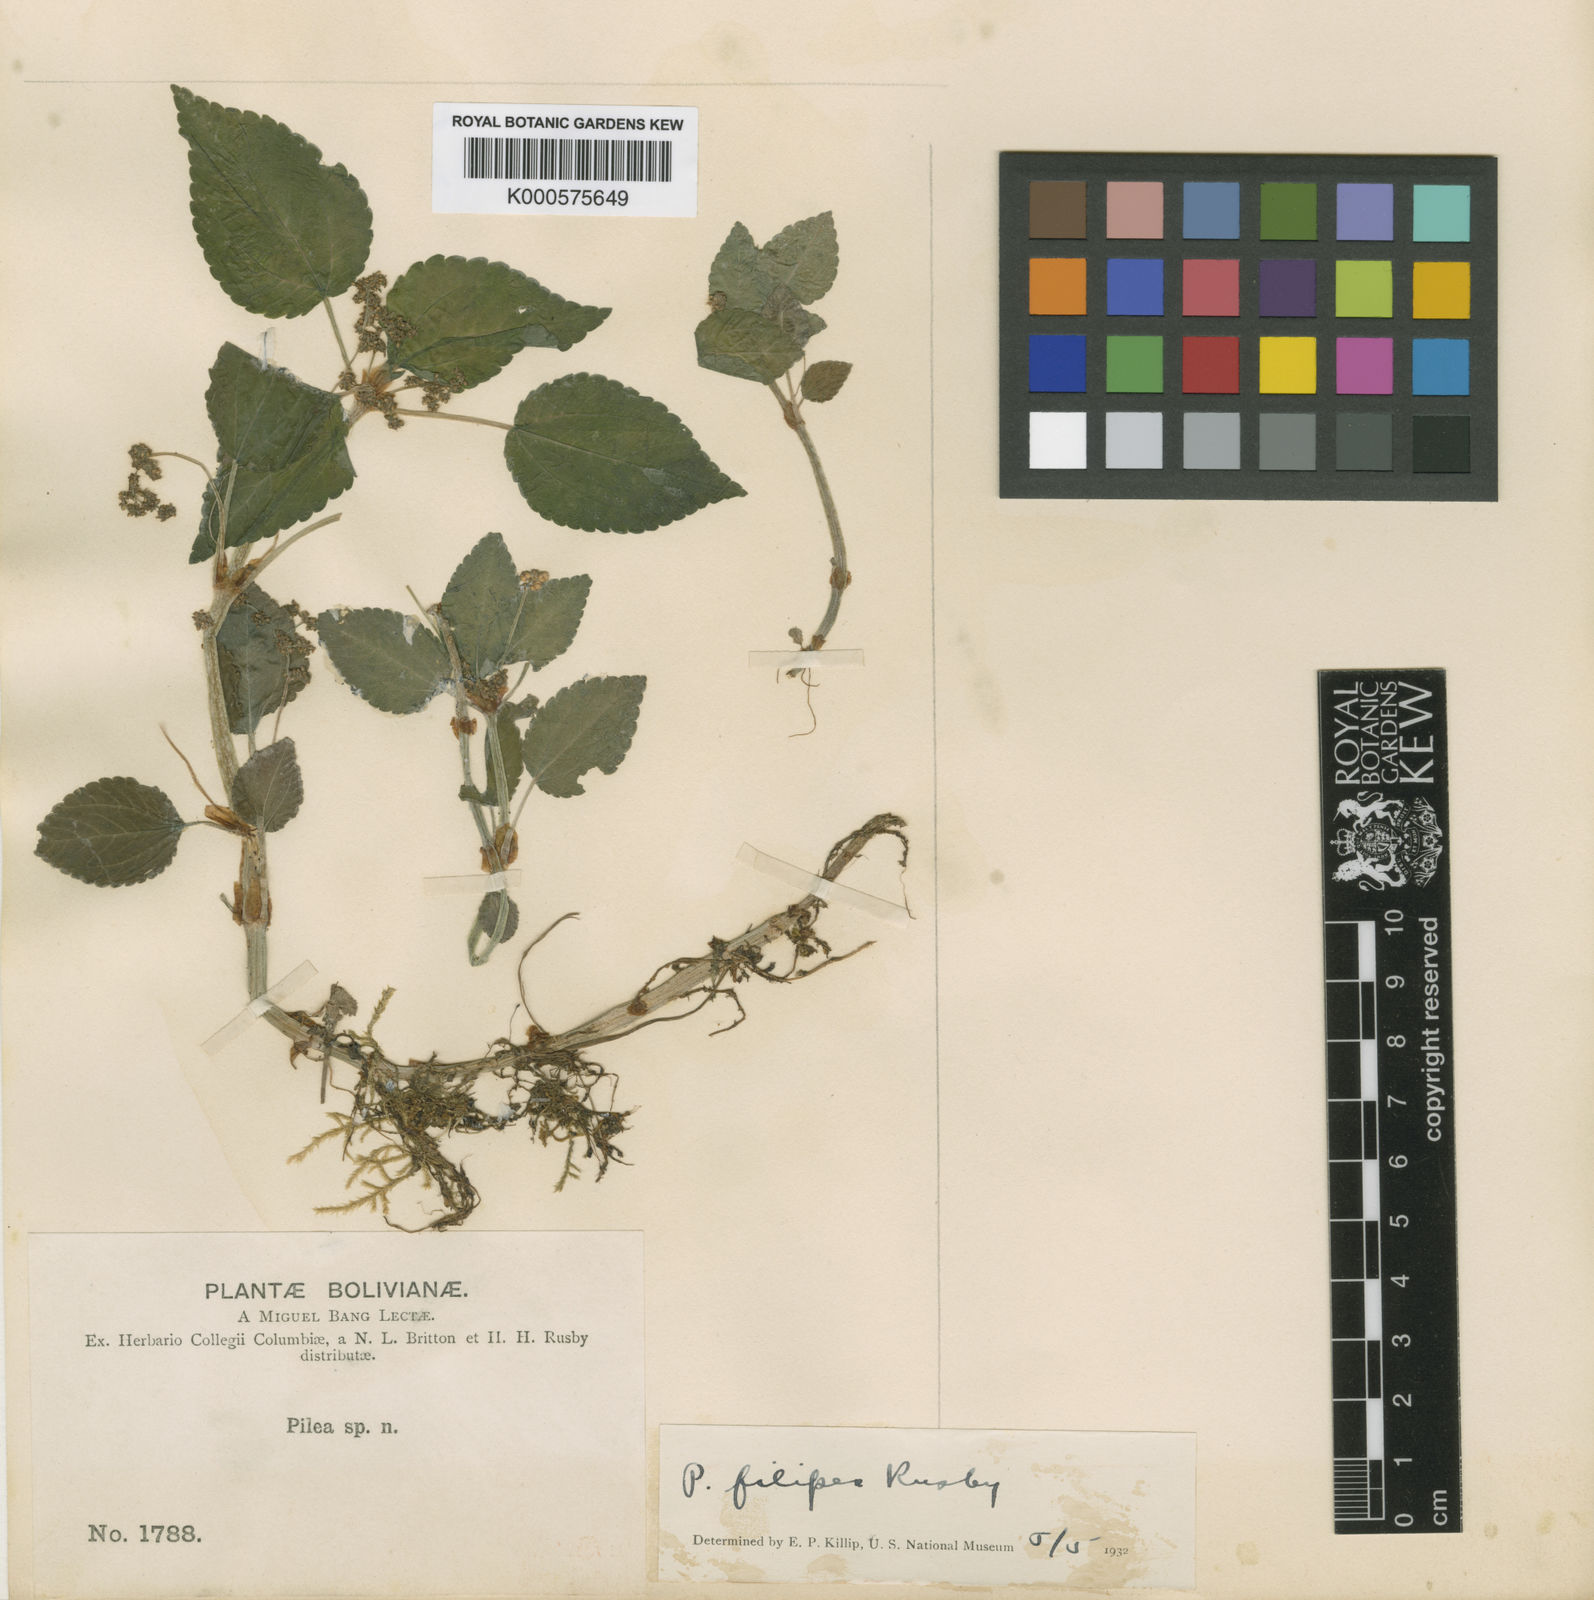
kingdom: Plantae
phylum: Tracheophyta
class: Magnoliopsida
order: Rosales
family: Urticaceae
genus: Pilea
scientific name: Pilea filipes
